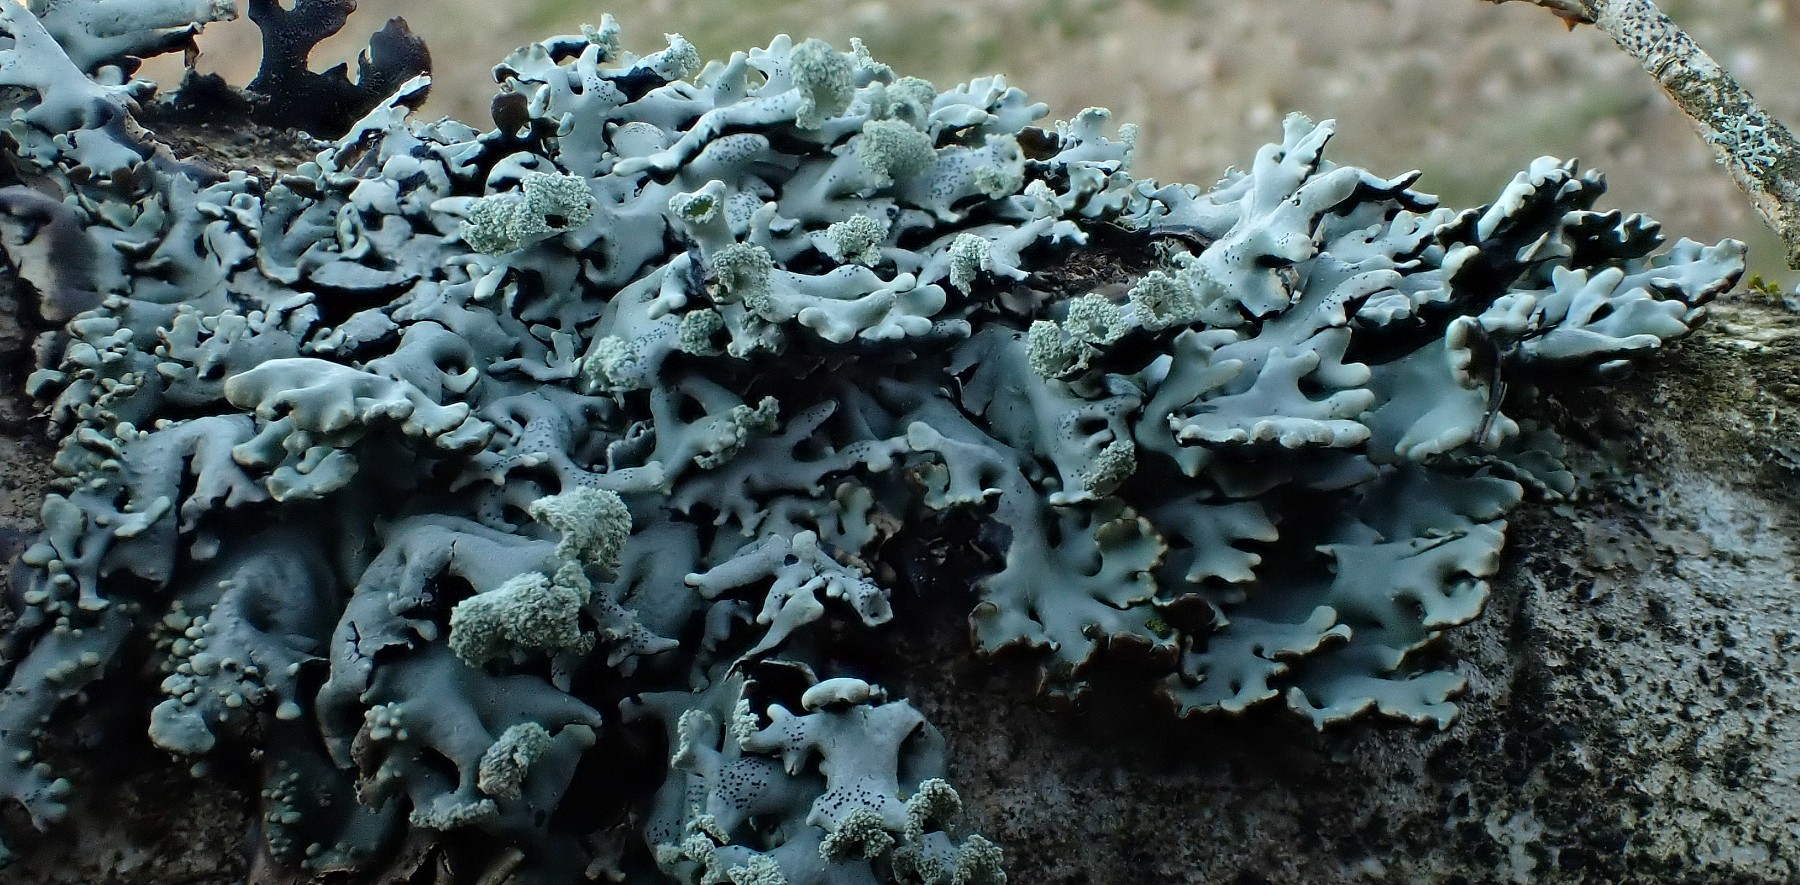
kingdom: Fungi
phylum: Ascomycota
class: Lecanoromycetes
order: Lecanorales
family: Parmeliaceae
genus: Hypogymnia
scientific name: Hypogymnia physodes
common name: almindelig kvistlav
